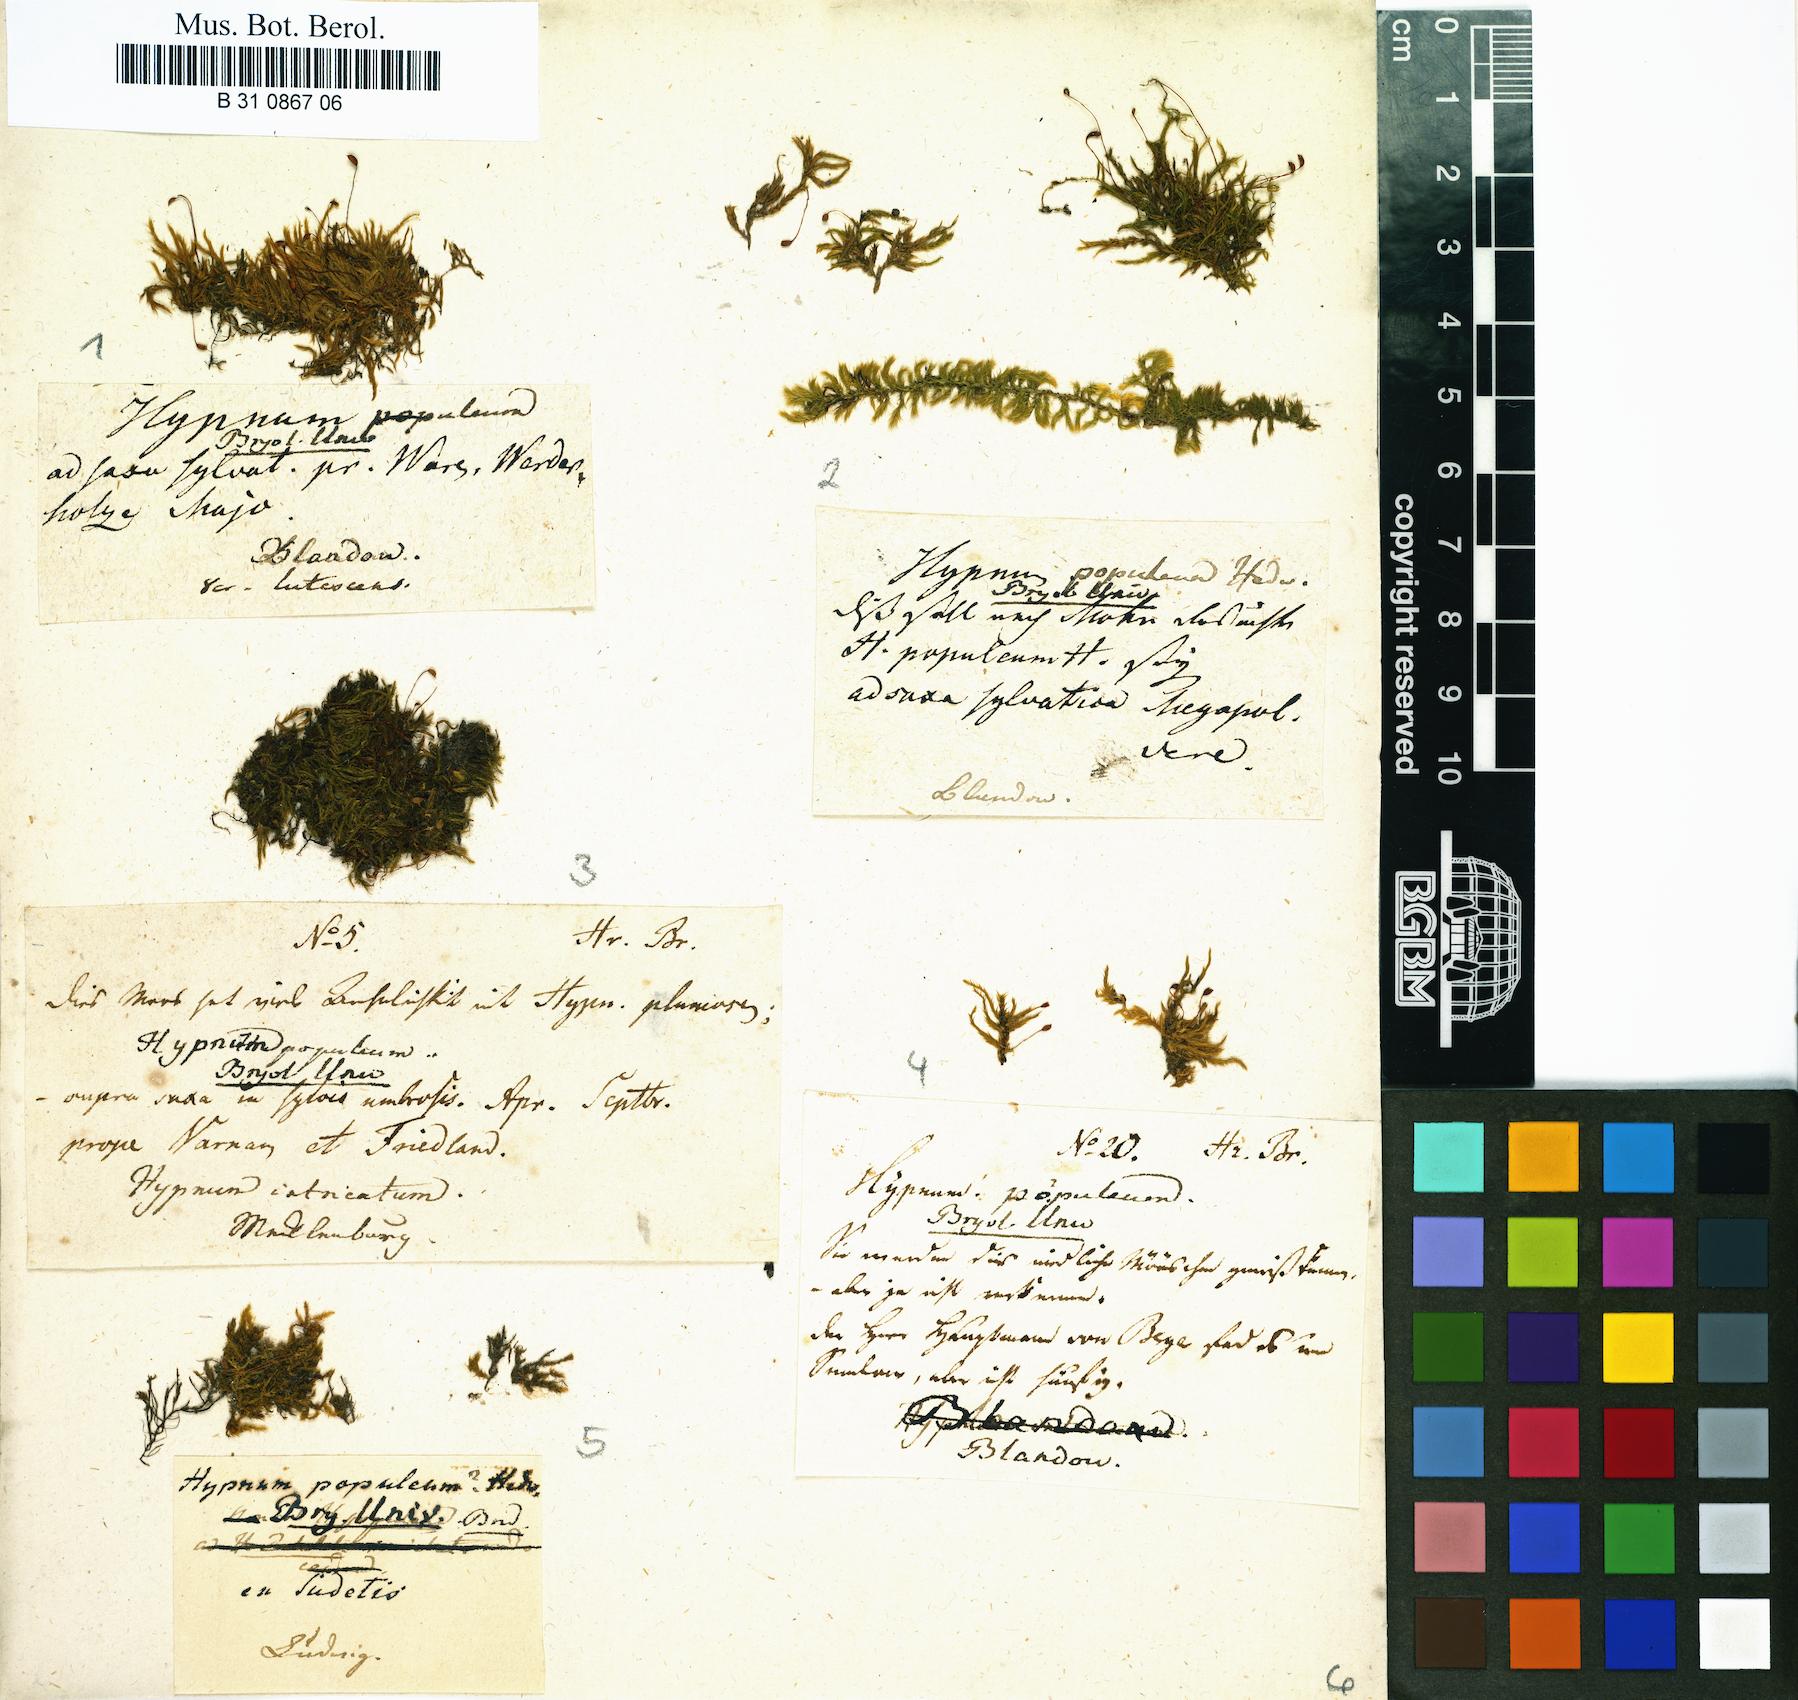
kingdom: Plantae
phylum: Bryophyta
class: Bryopsida
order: Hypnales
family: Brachytheciaceae
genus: Sciuro-hypnum
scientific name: Sciuro-hypnum populeum
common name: Matted feather-moss
